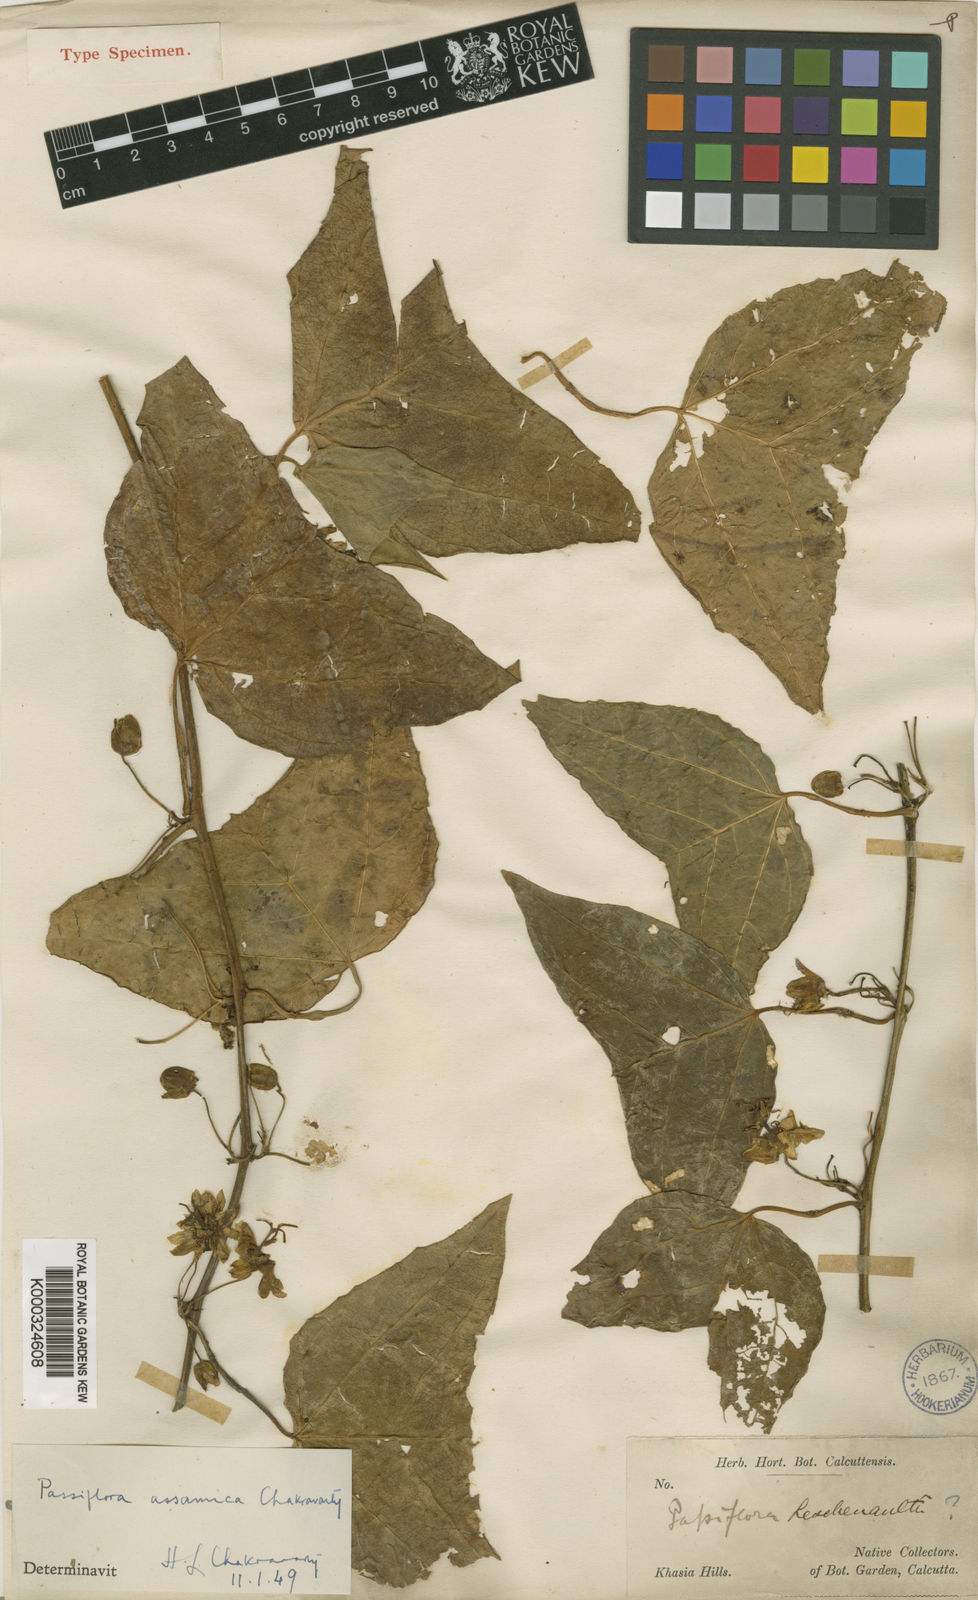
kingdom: Plantae
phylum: Tracheophyta
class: Magnoliopsida
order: Malpighiales
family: Passifloraceae
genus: Passiflora
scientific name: Passiflora wilsonii
